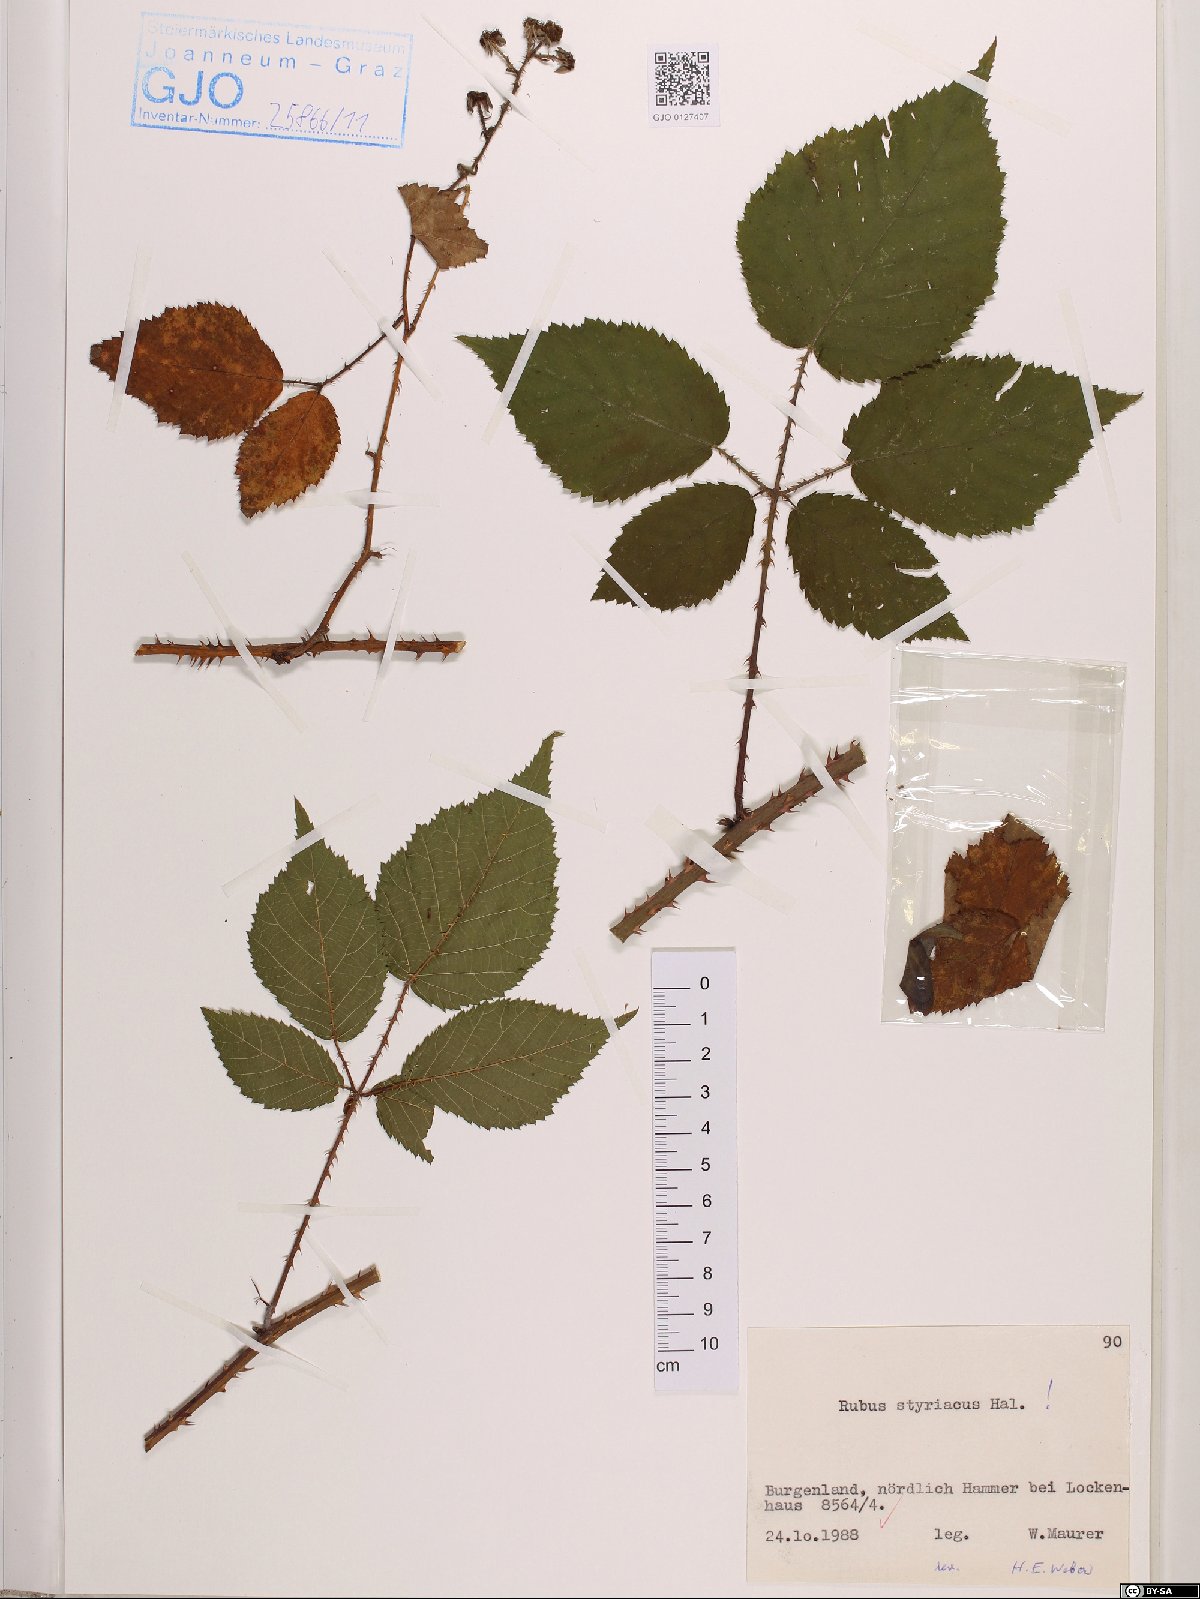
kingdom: Plantae
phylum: Tracheophyta
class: Magnoliopsida
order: Rosales
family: Rosaceae
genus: Rubus
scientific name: Rubus styriacus
